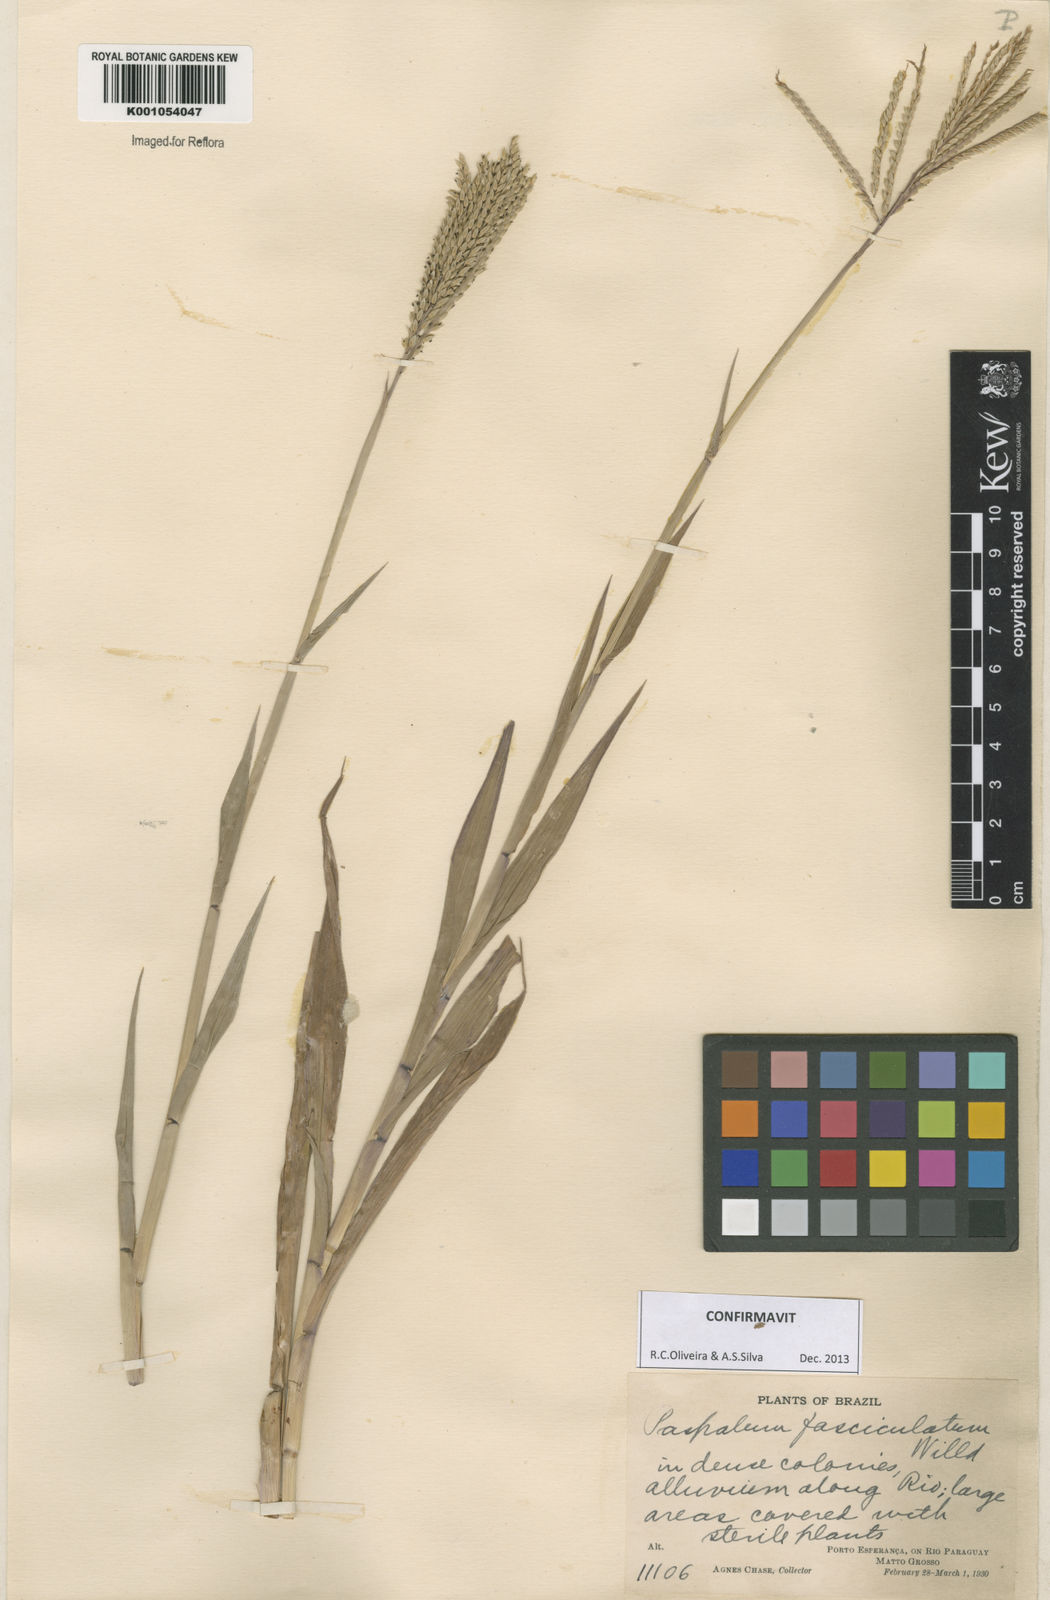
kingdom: Plantae
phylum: Tracheophyta
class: Liliopsida
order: Poales
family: Poaceae
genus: Paspalum
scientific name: Paspalum
